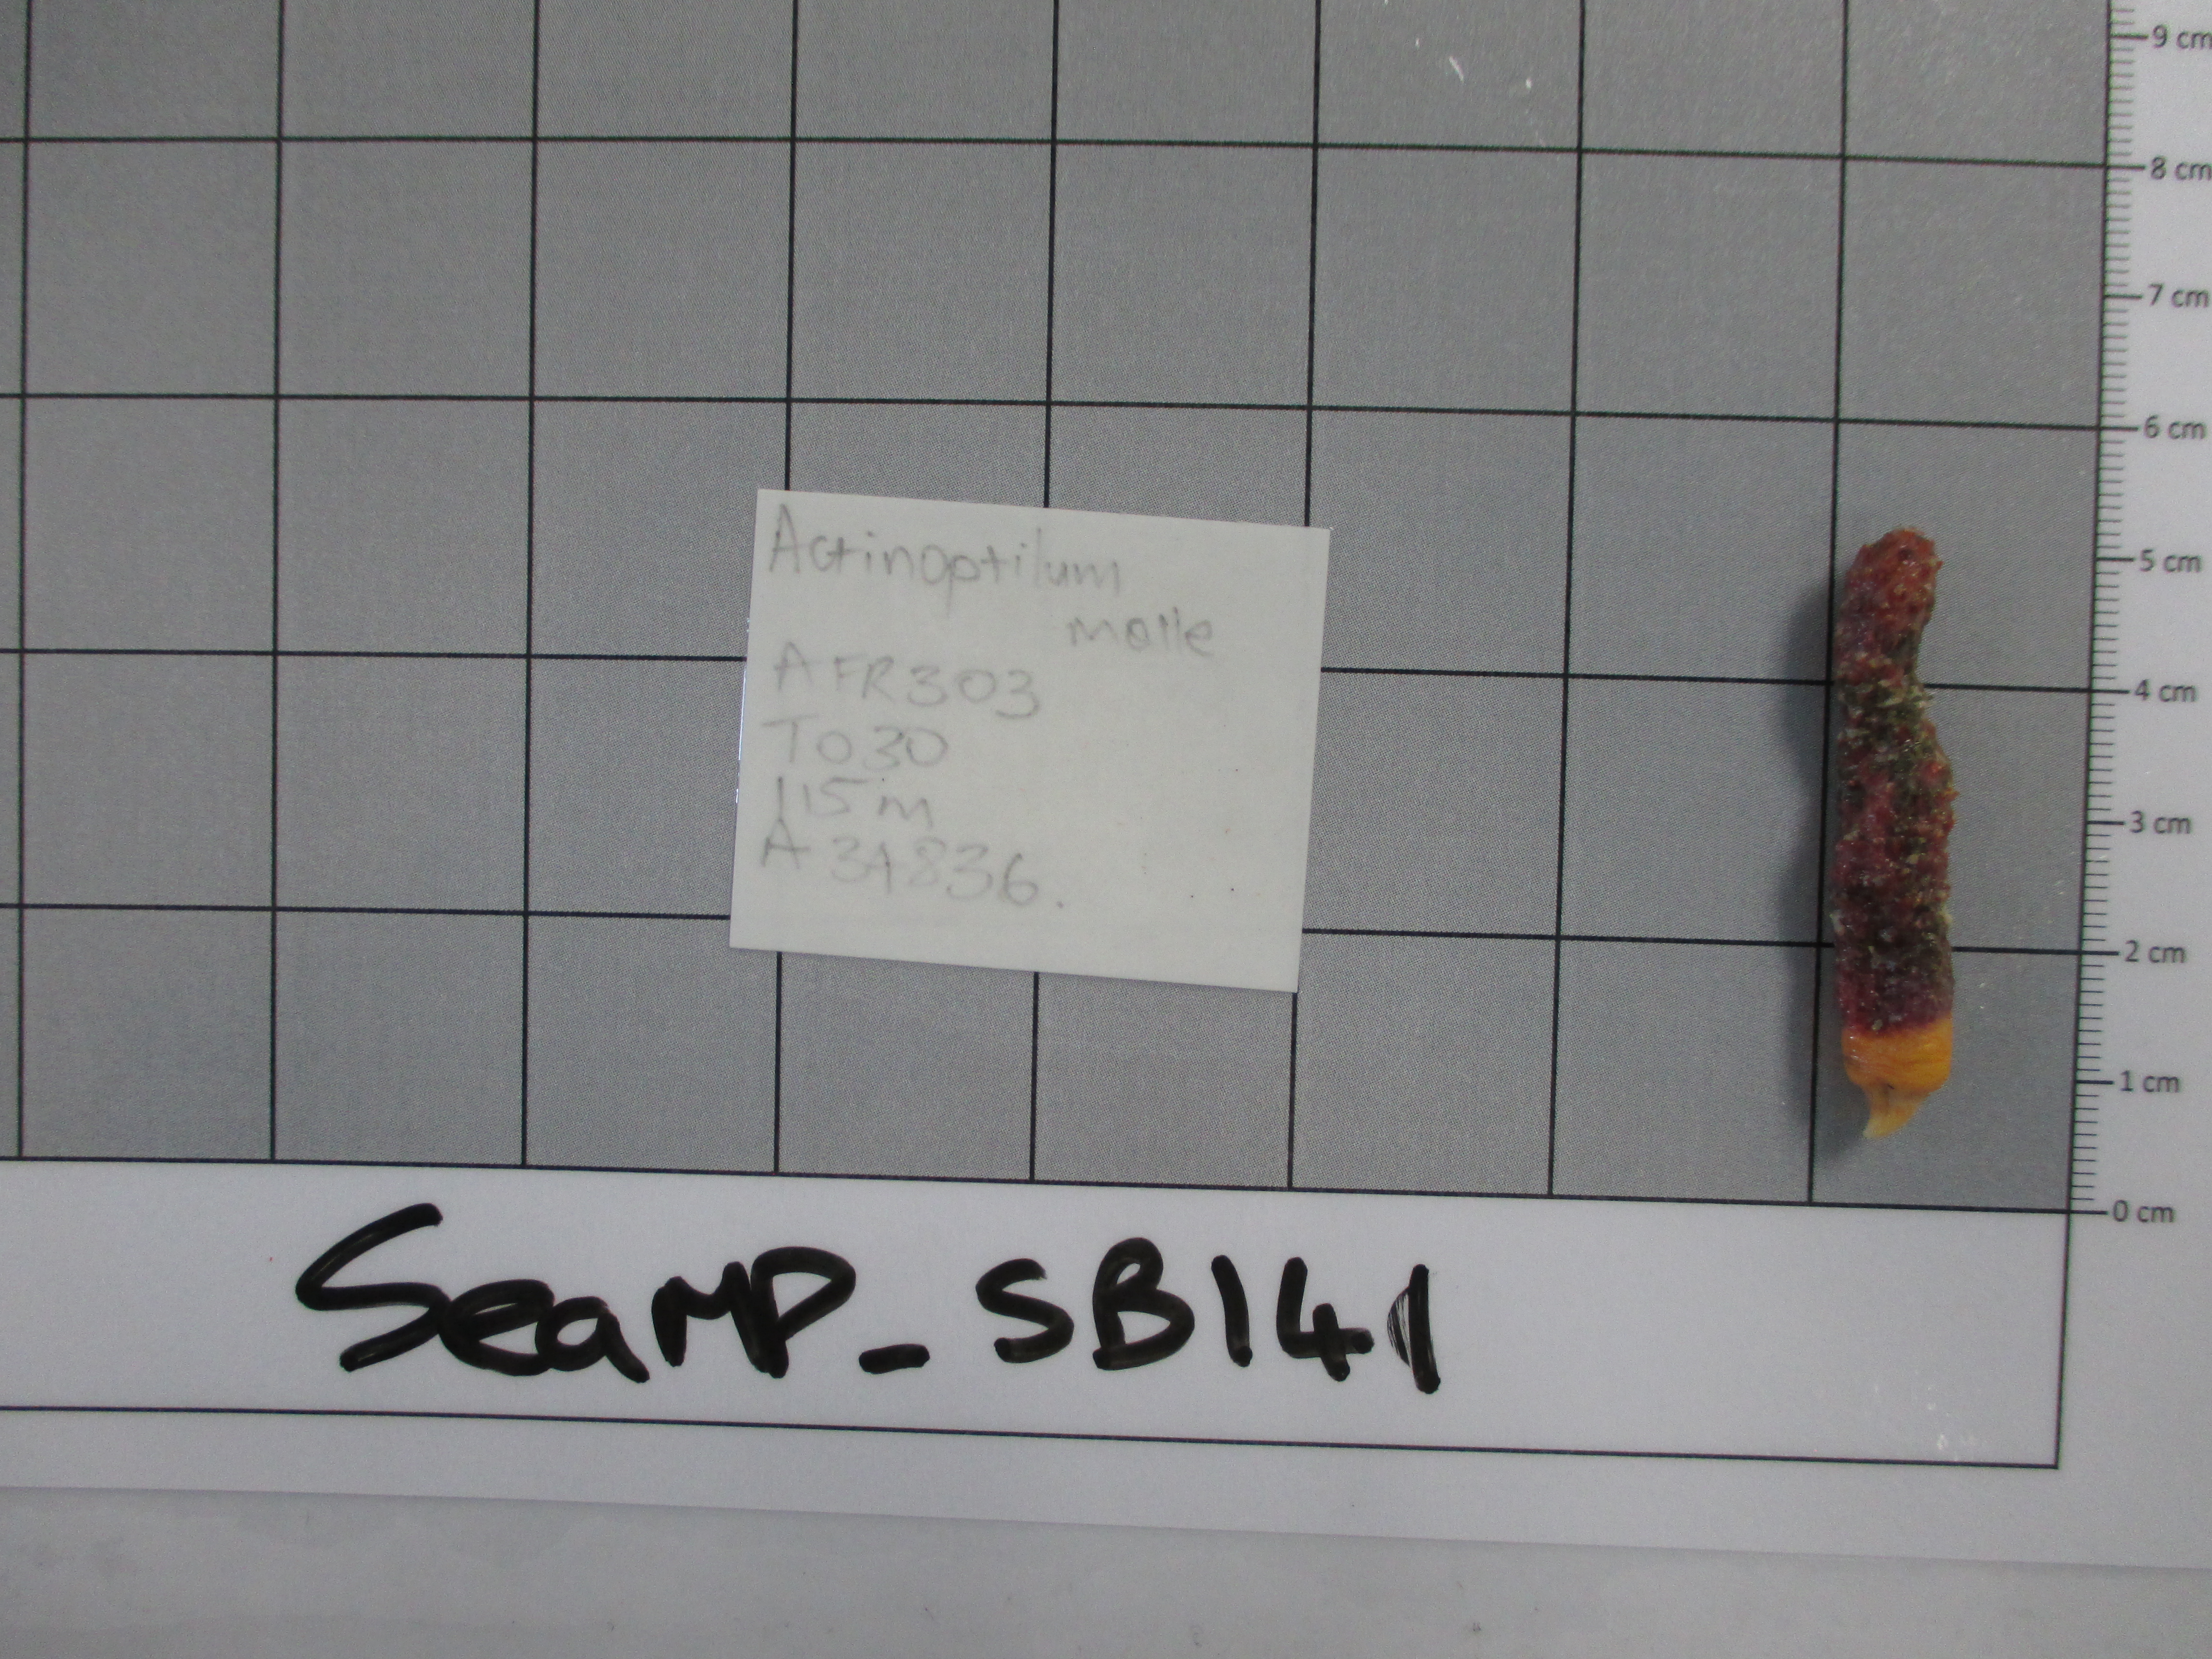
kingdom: Animalia
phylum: Cnidaria
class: Anthozoa
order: Scleralcyonacea
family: Echinoptilidae
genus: Actinoptilum
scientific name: Actinoptilum molle
